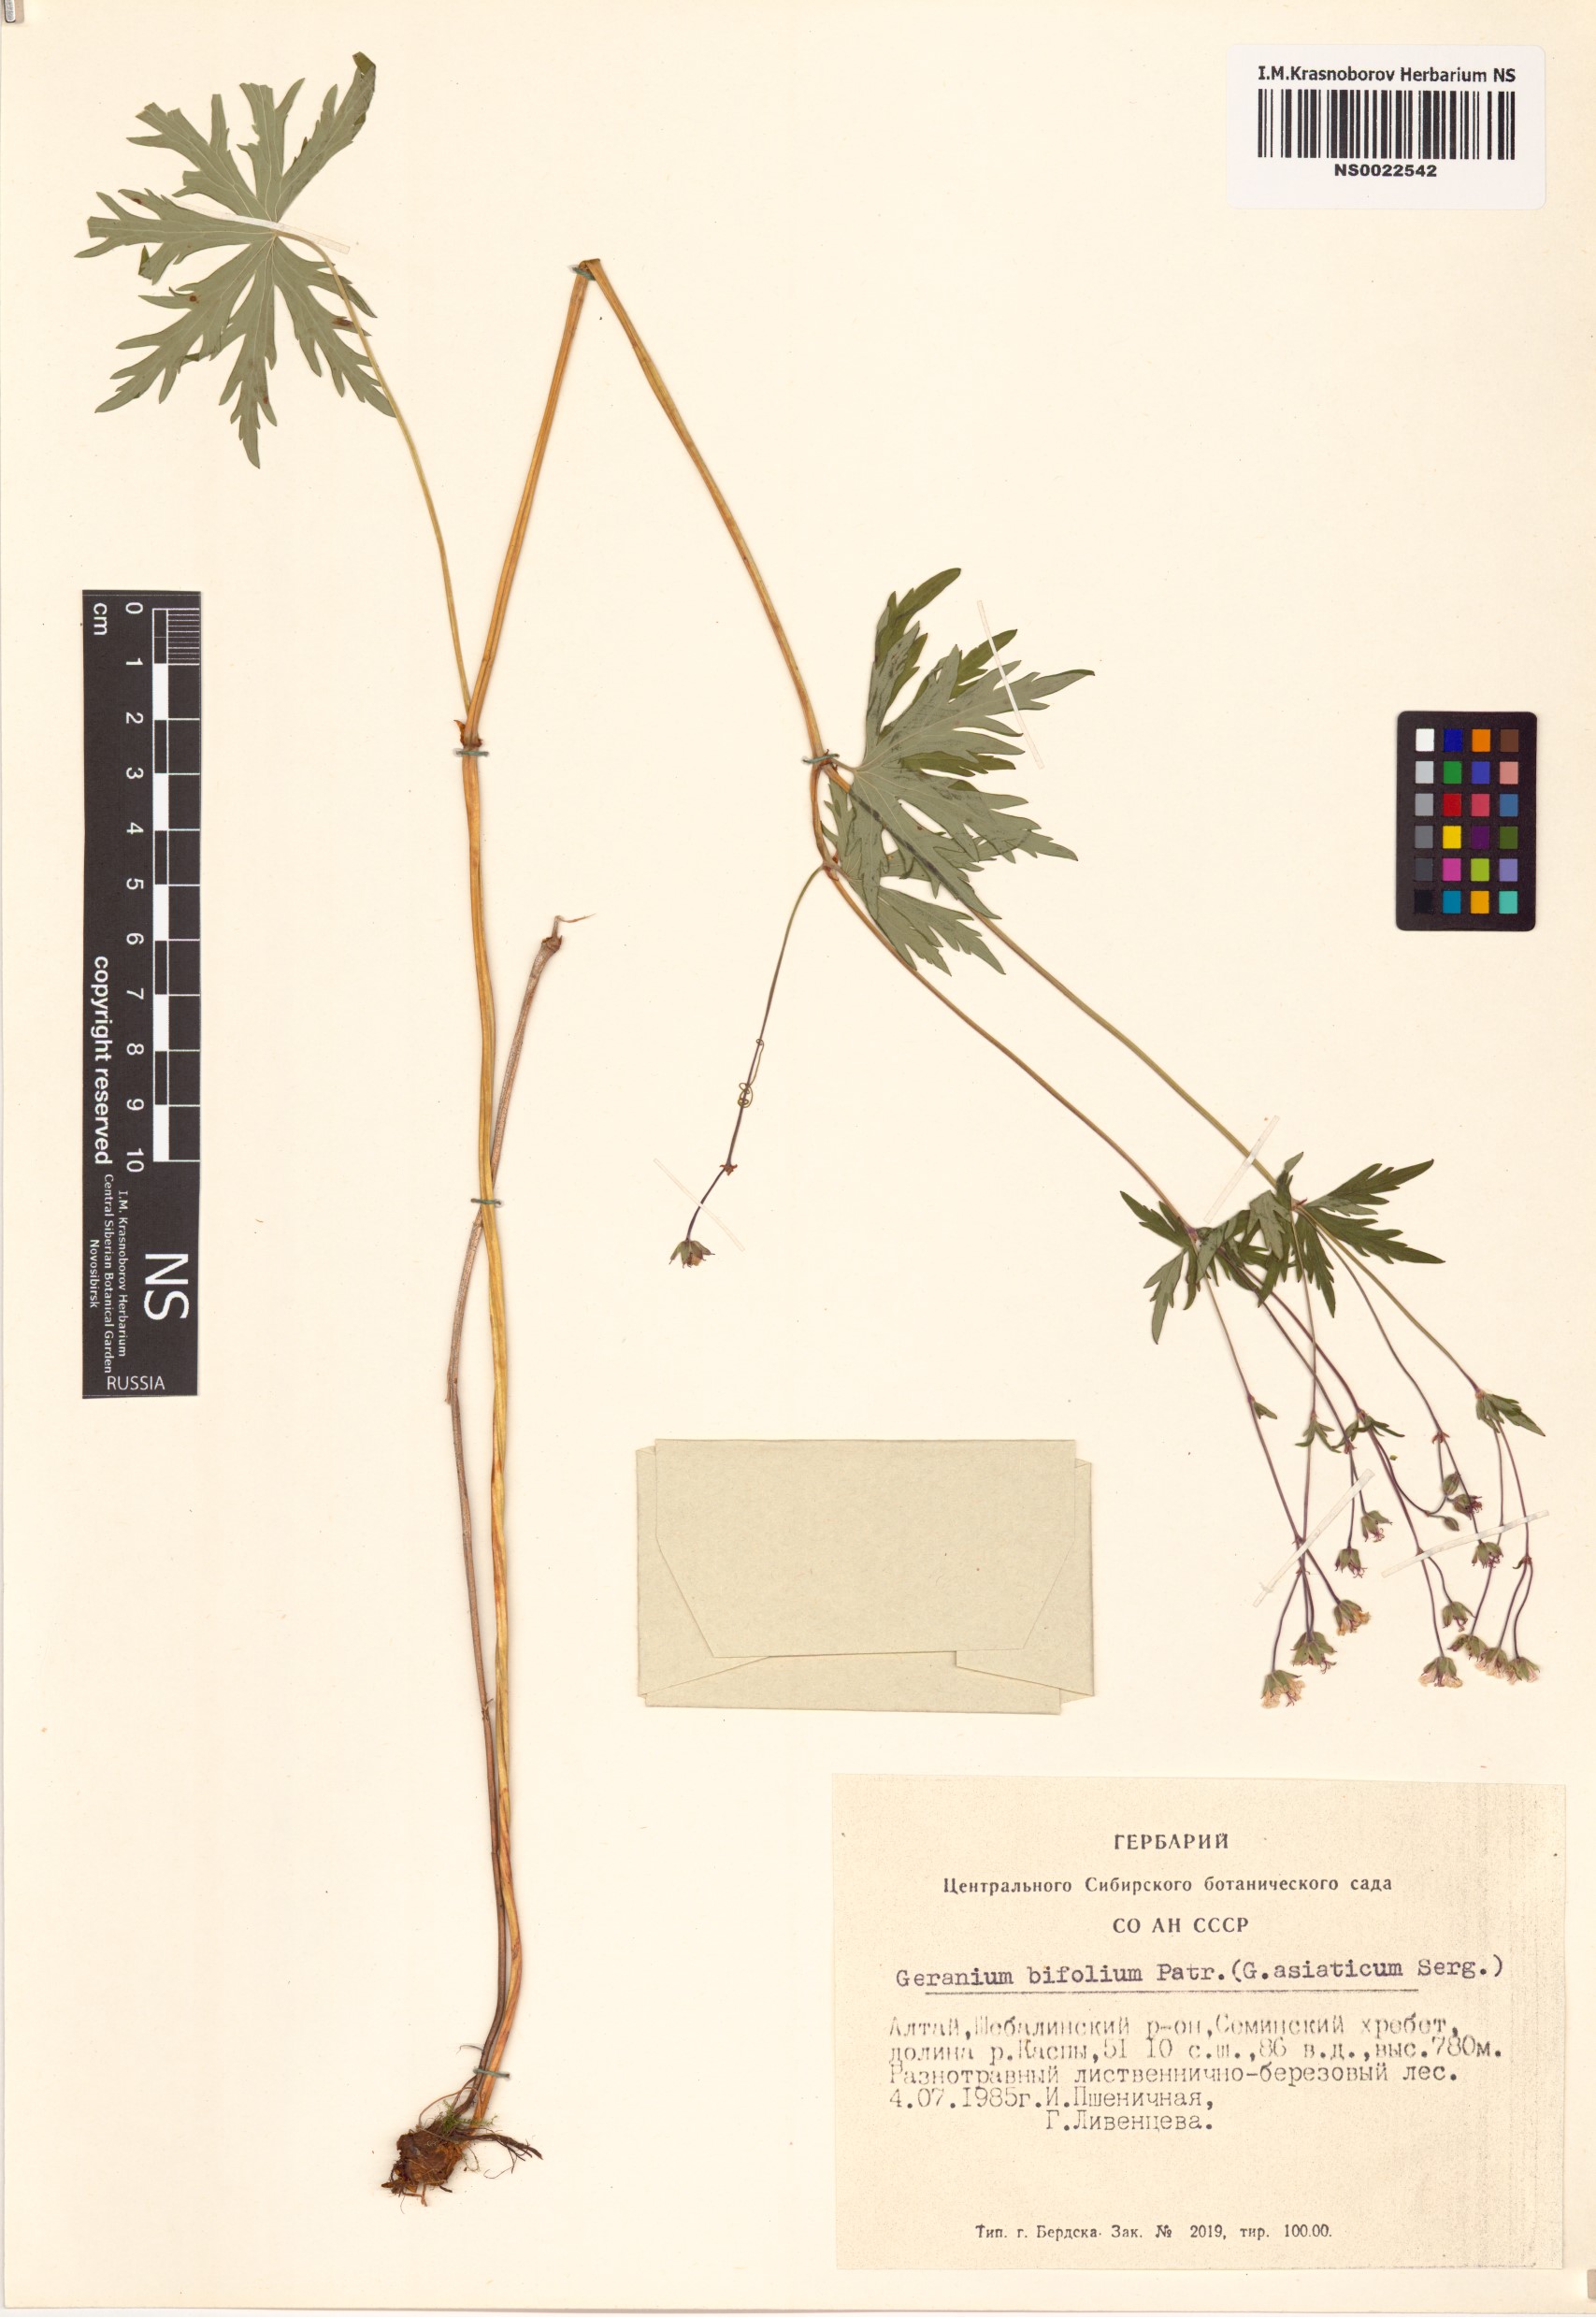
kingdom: Plantae
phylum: Tracheophyta
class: Magnoliopsida
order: Geraniales
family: Geraniaceae
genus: Geranium
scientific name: Geranium pseudosibiricum
